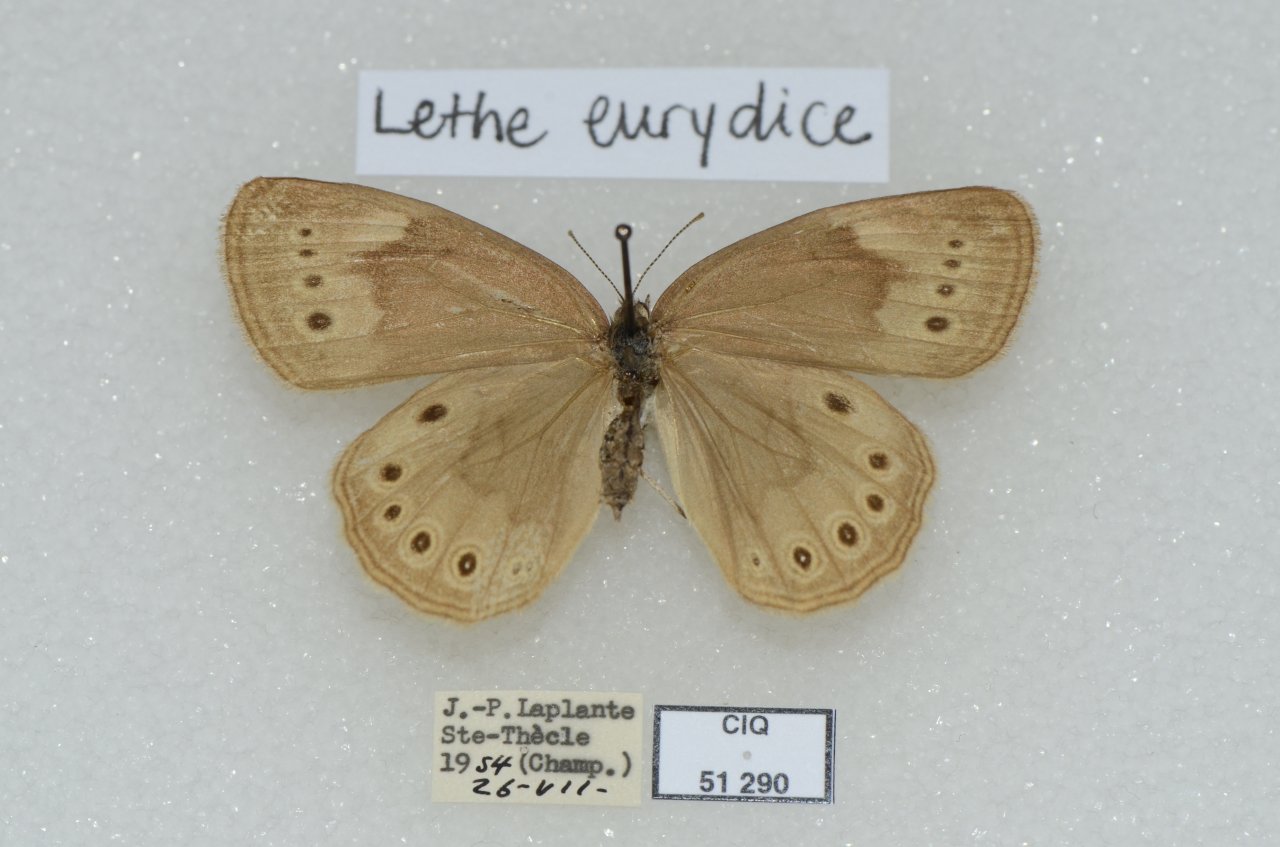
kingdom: Animalia
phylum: Arthropoda
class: Insecta
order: Lepidoptera
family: Nymphalidae
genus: Lethe
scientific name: Lethe eurydice
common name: Eyed Brown
